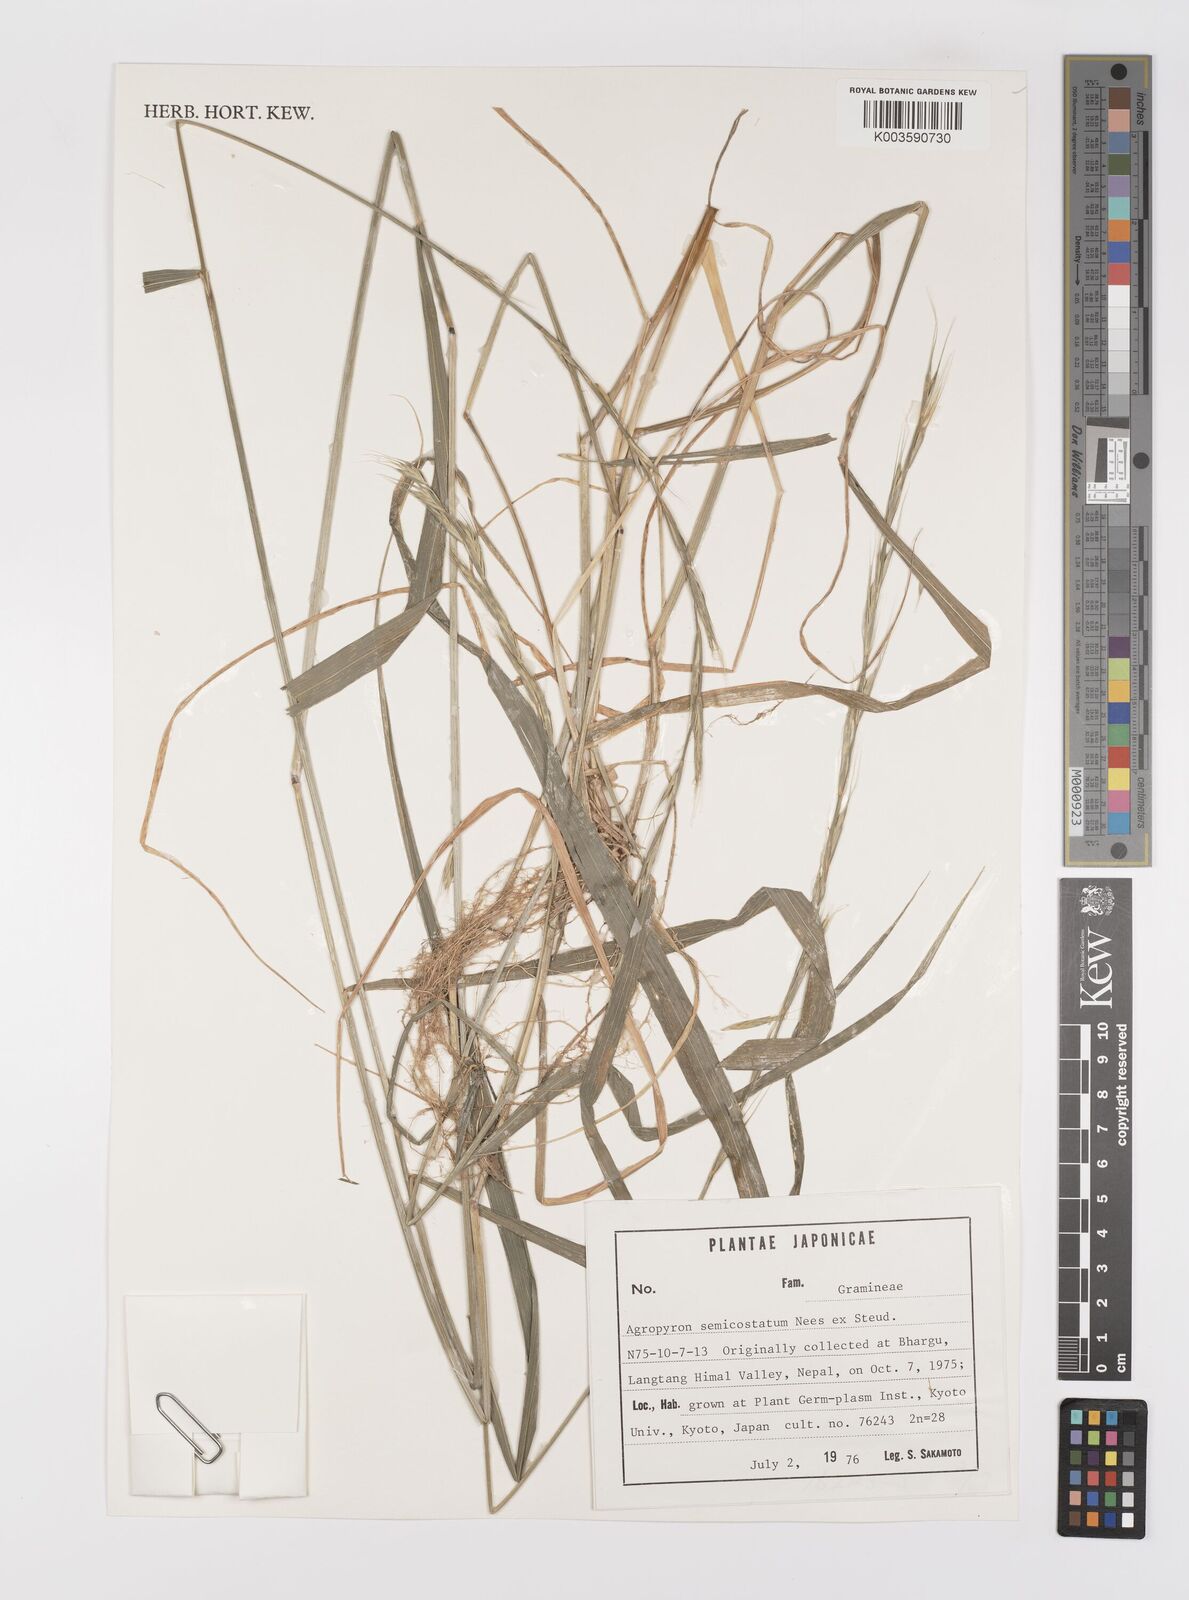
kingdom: Plantae
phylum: Tracheophyta
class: Liliopsida
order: Poales
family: Poaceae
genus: Elymus
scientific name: Elymus semicostatus
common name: Drooping wildrye
